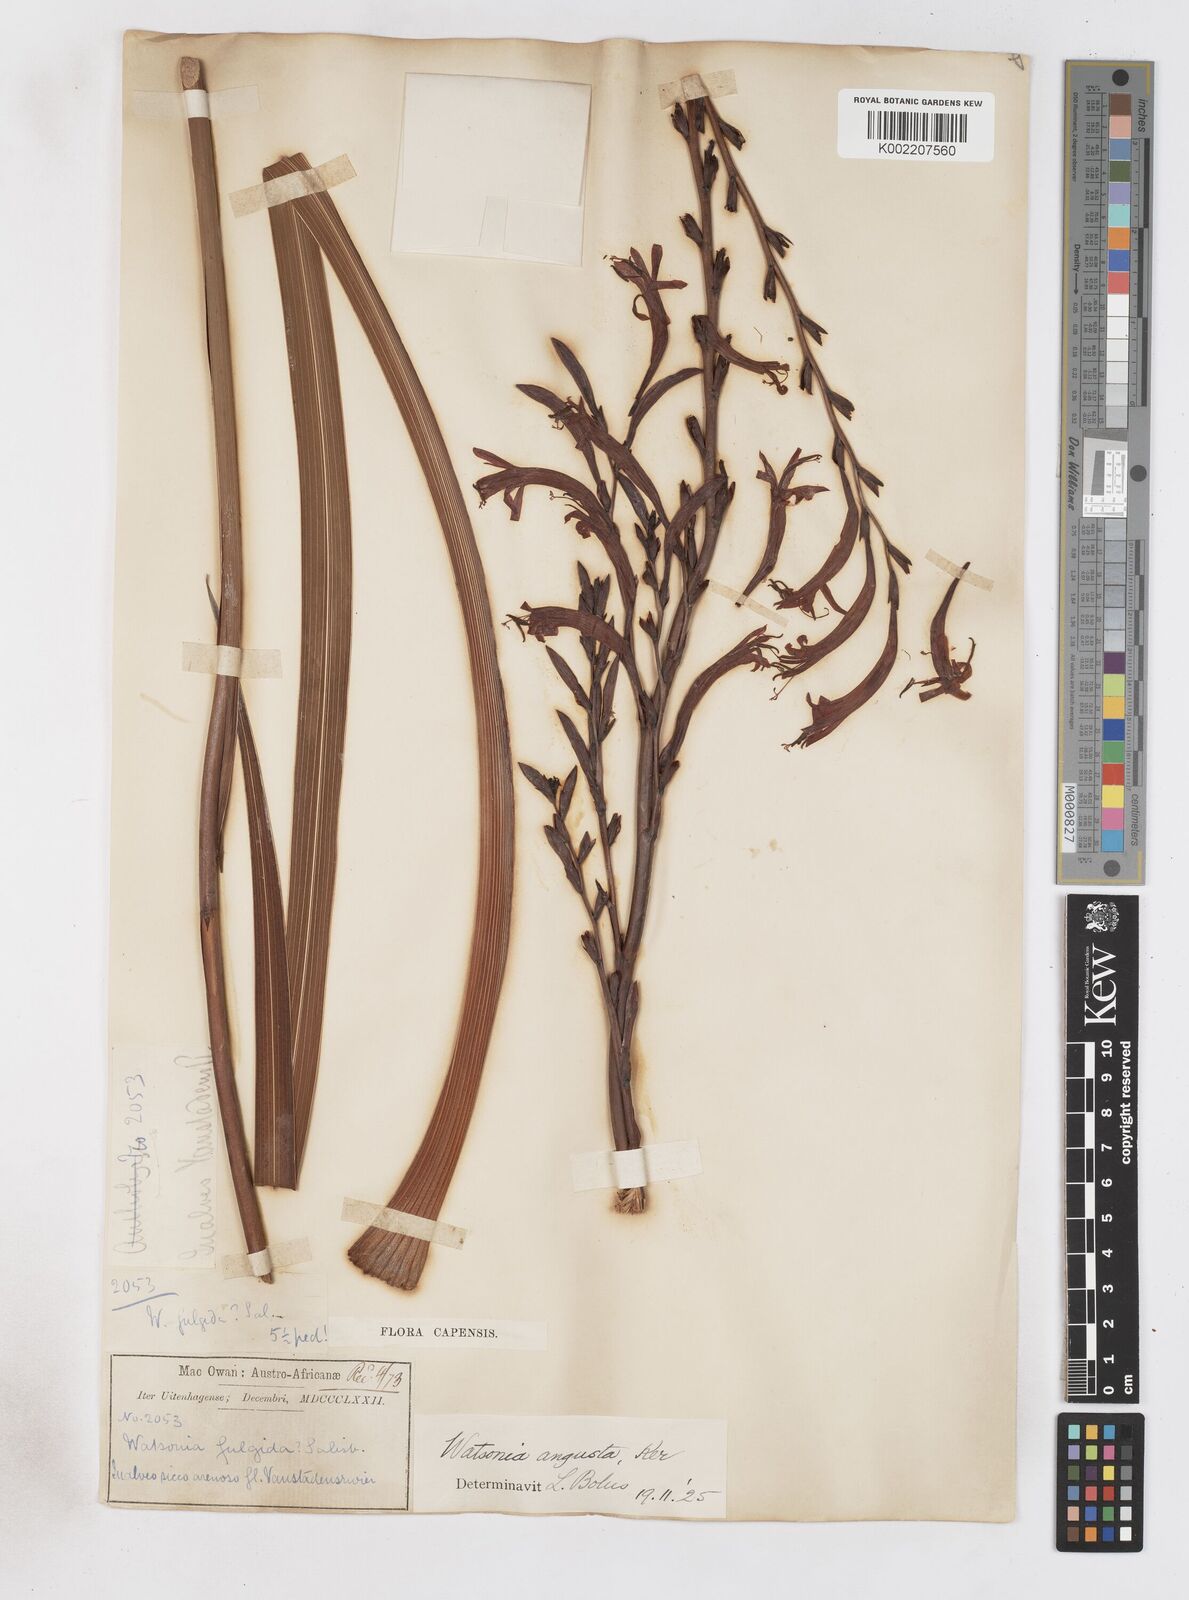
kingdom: Plantae
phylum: Tracheophyta
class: Liliopsida
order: Asparagales
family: Iridaceae
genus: Watsonia
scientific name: Watsonia angusta
